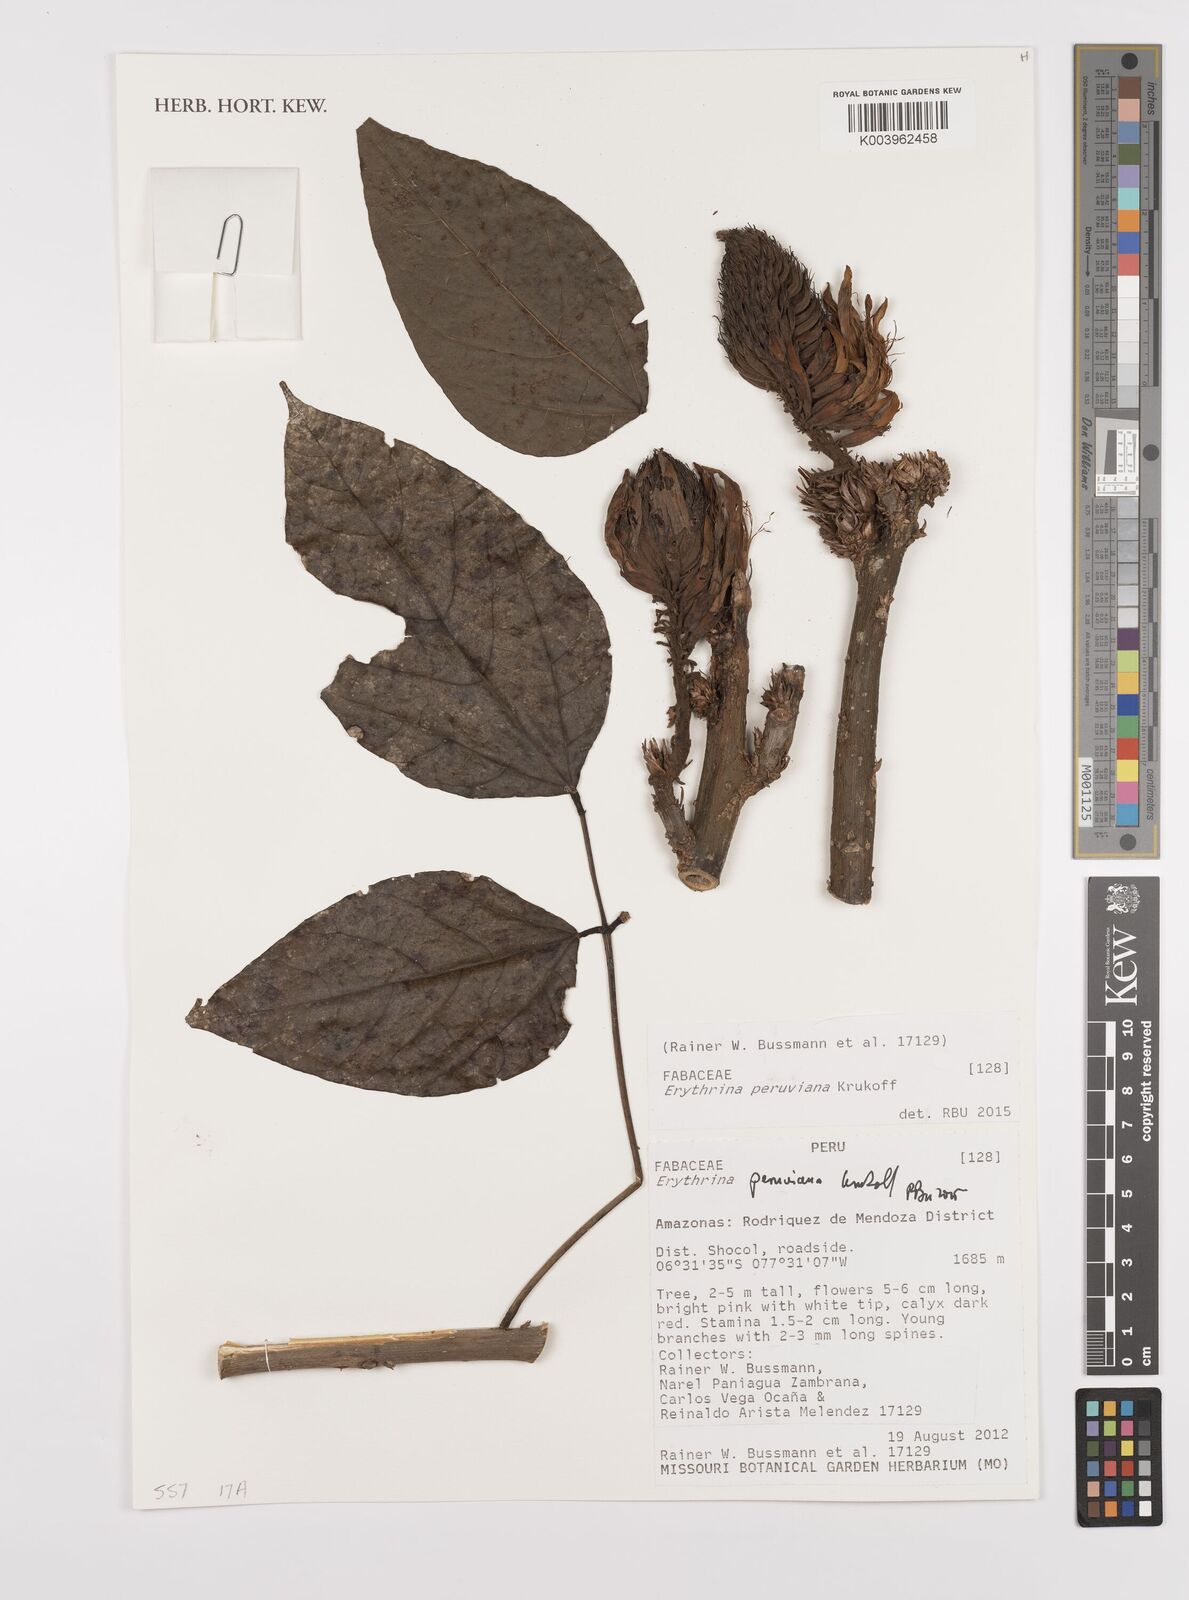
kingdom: Plantae
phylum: Tracheophyta
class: Magnoliopsida
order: Fabales
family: Fabaceae
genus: Erythrina
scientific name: Erythrina peruviana
